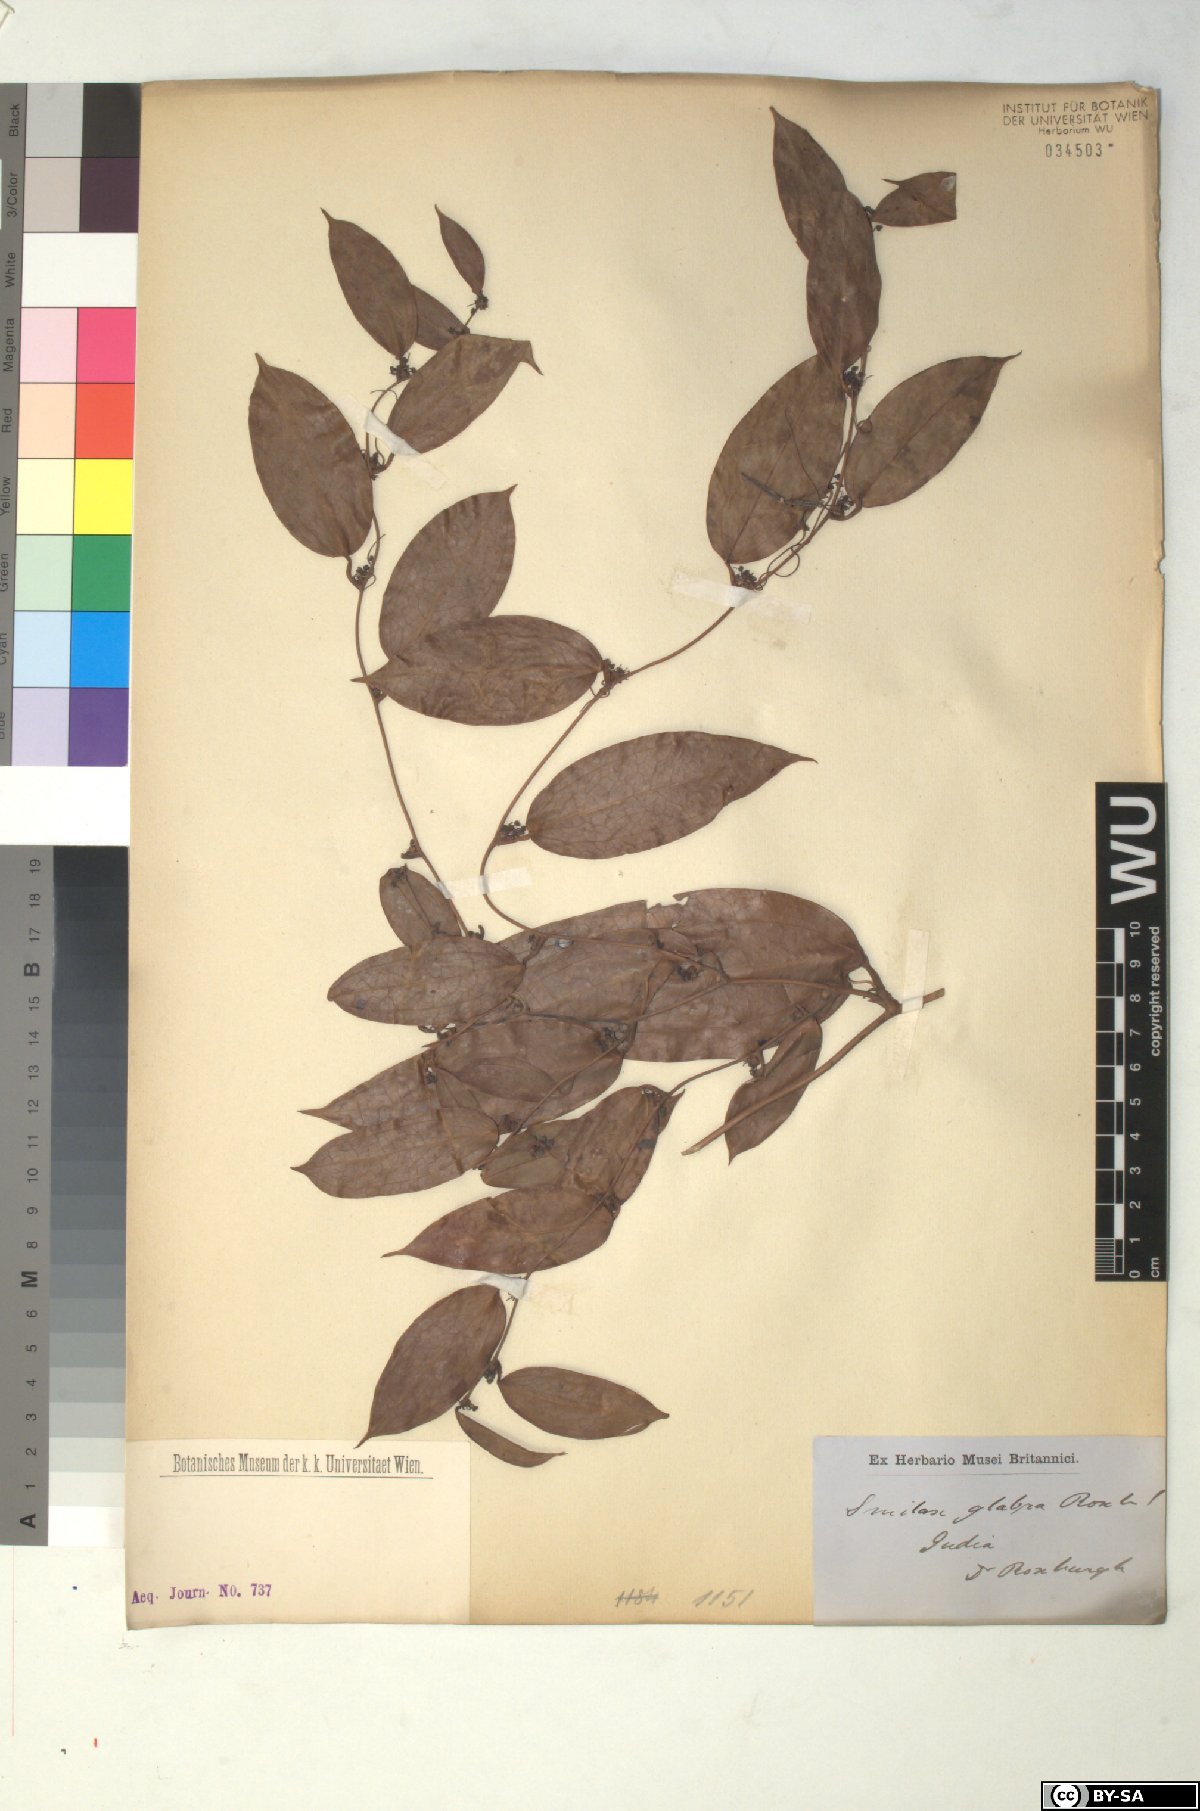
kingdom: Plantae
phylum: Tracheophyta
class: Liliopsida
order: Liliales
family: Smilacaceae
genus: Smilax
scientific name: Smilax glabra
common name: Chinese smilax
